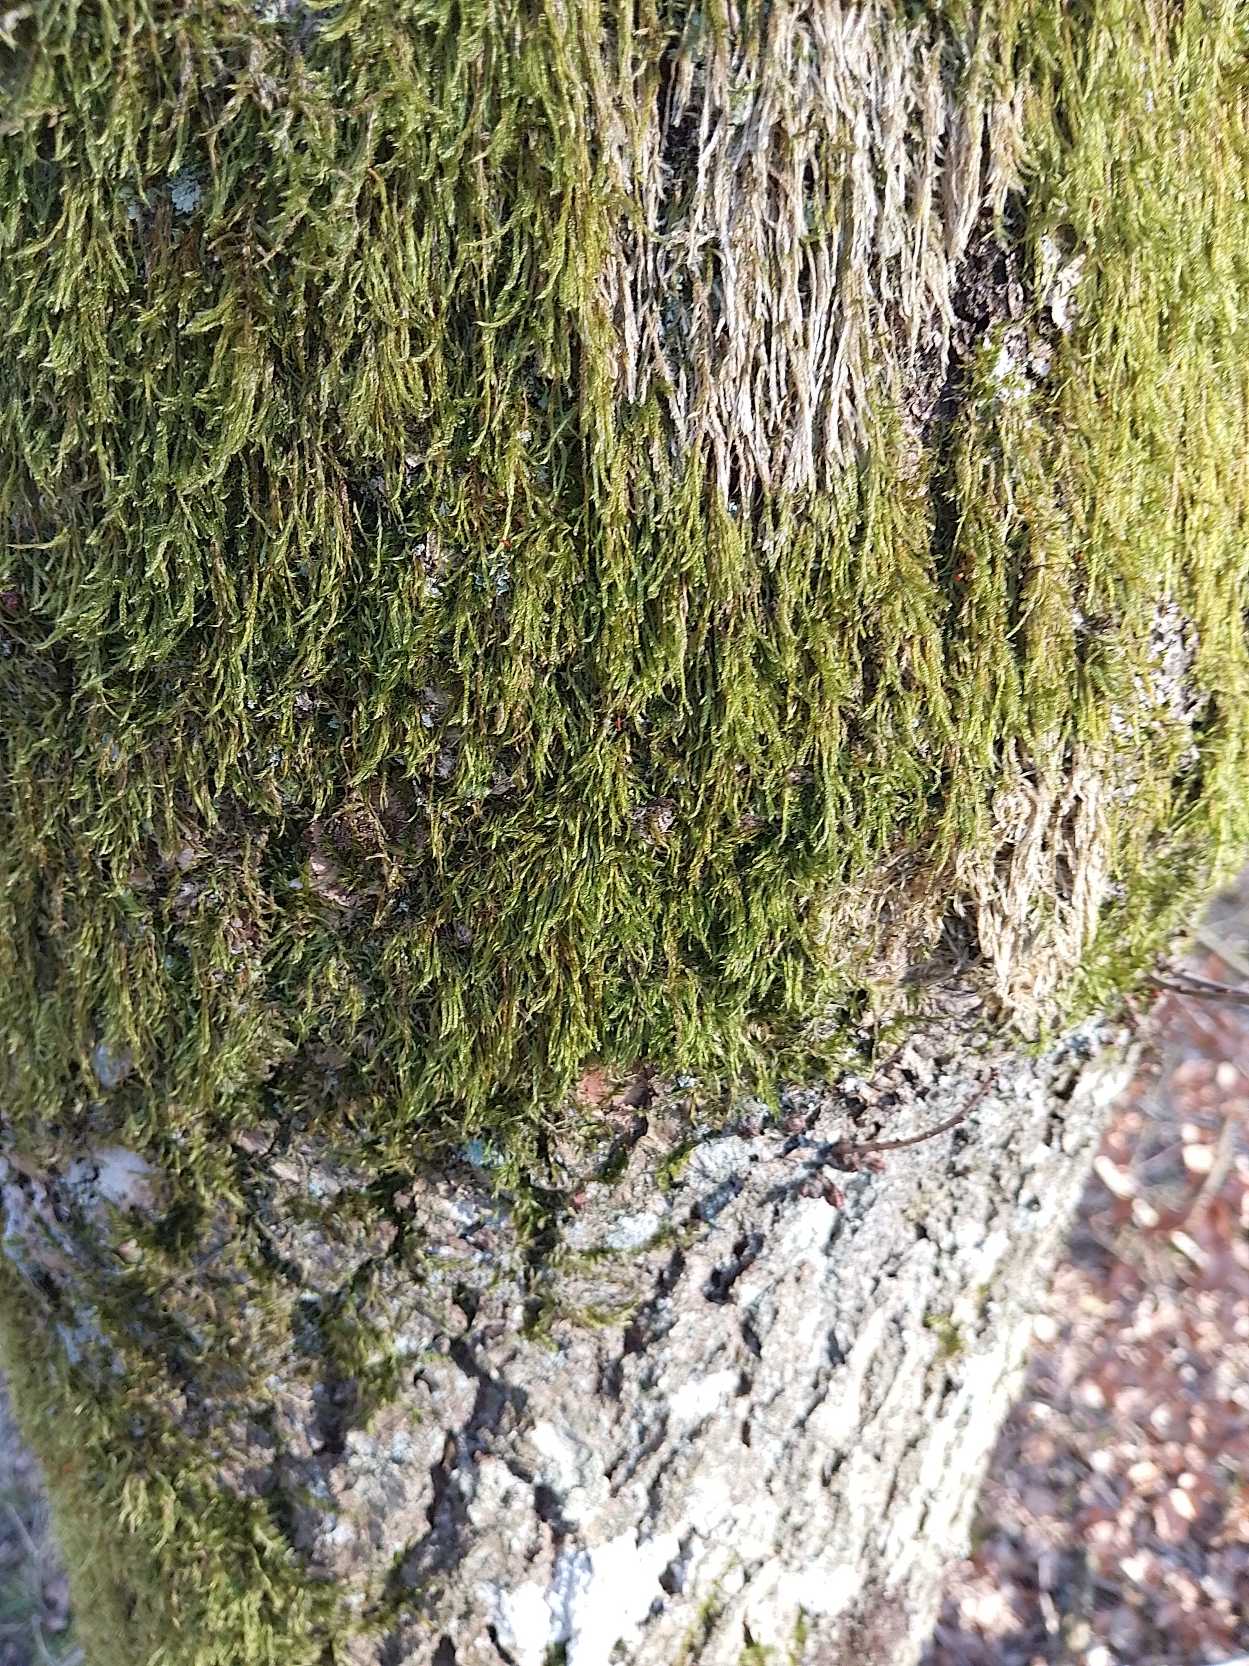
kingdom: Plantae
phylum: Bryophyta
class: Bryopsida
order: Hypnales
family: Hypnaceae
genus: Hypnum
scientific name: Hypnum
